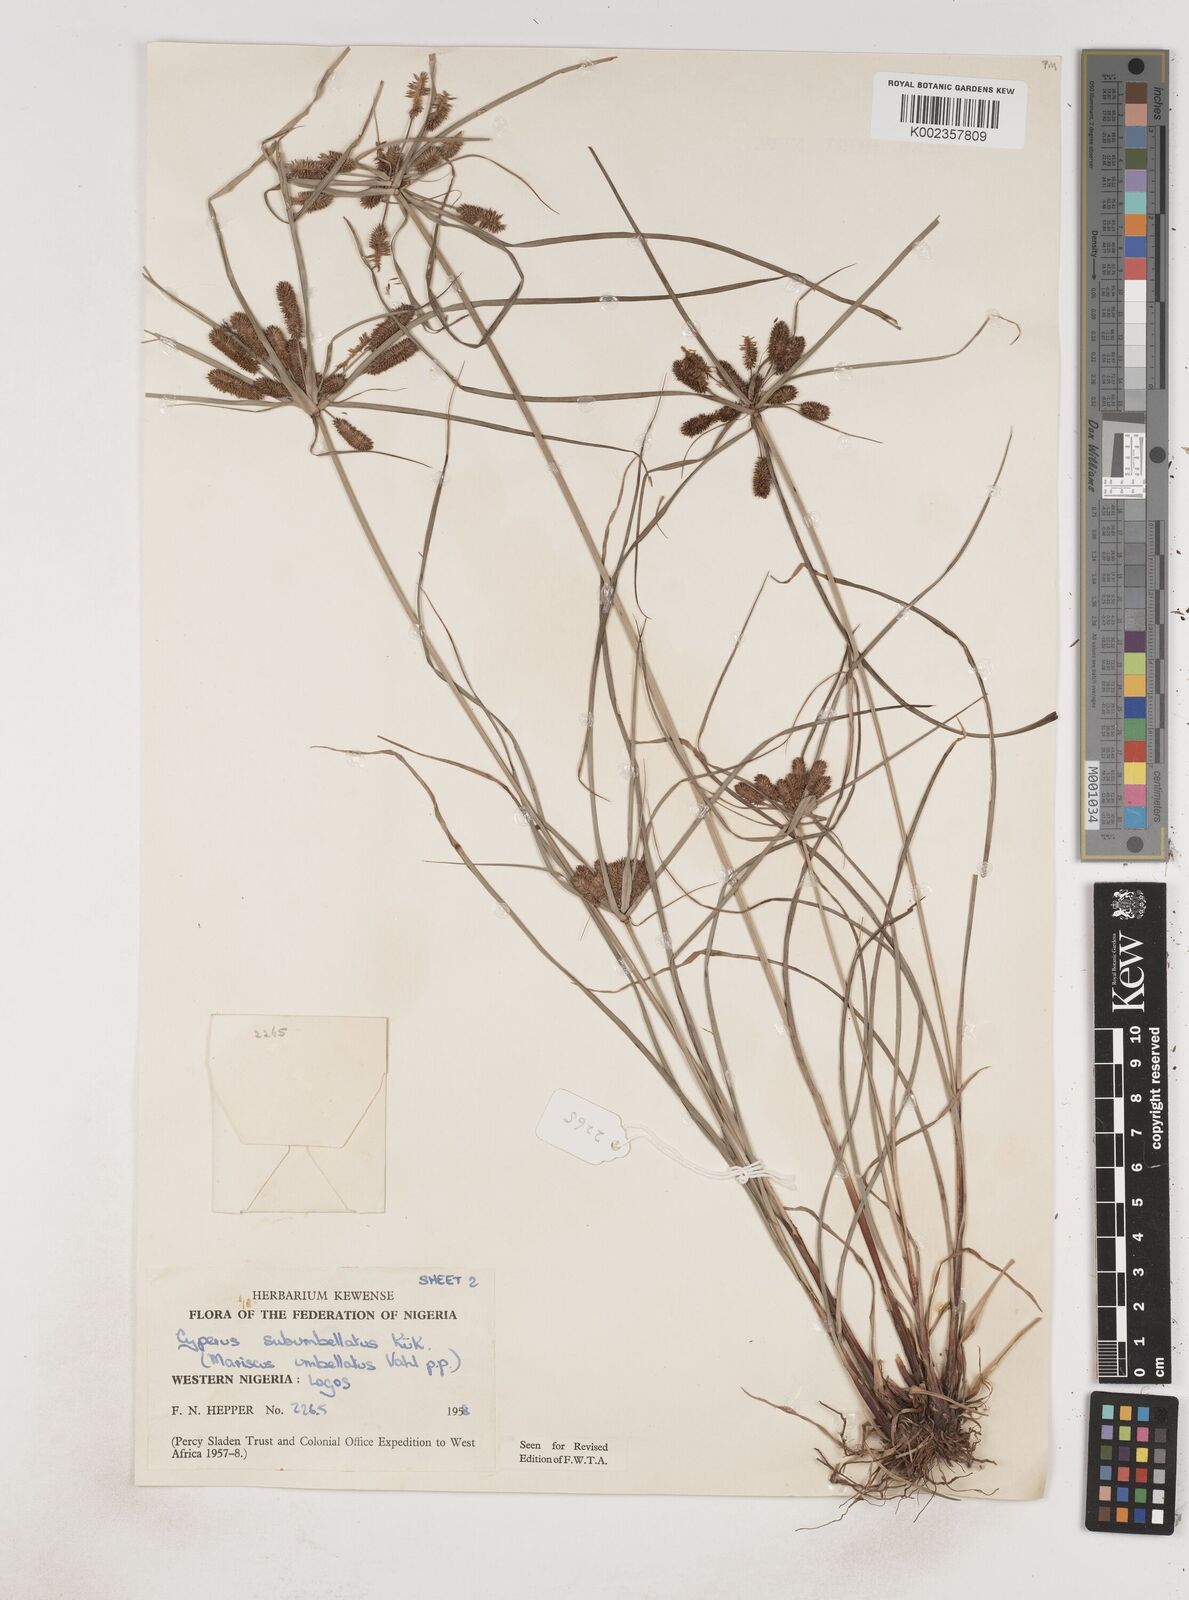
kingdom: Plantae
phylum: Tracheophyta
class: Liliopsida
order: Poales
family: Cyperaceae
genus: Cyperus
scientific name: Cyperus sublimis
